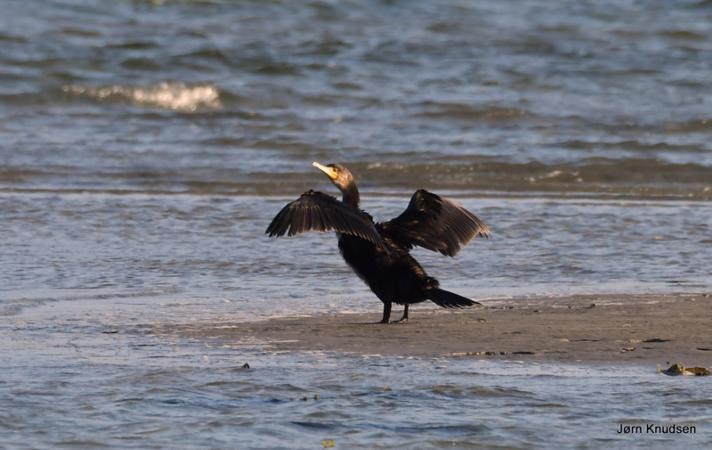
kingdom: Animalia
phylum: Chordata
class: Aves
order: Suliformes
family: Phalacrocoracidae
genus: Phalacrocorax
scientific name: Phalacrocorax carbo
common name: Skarv
